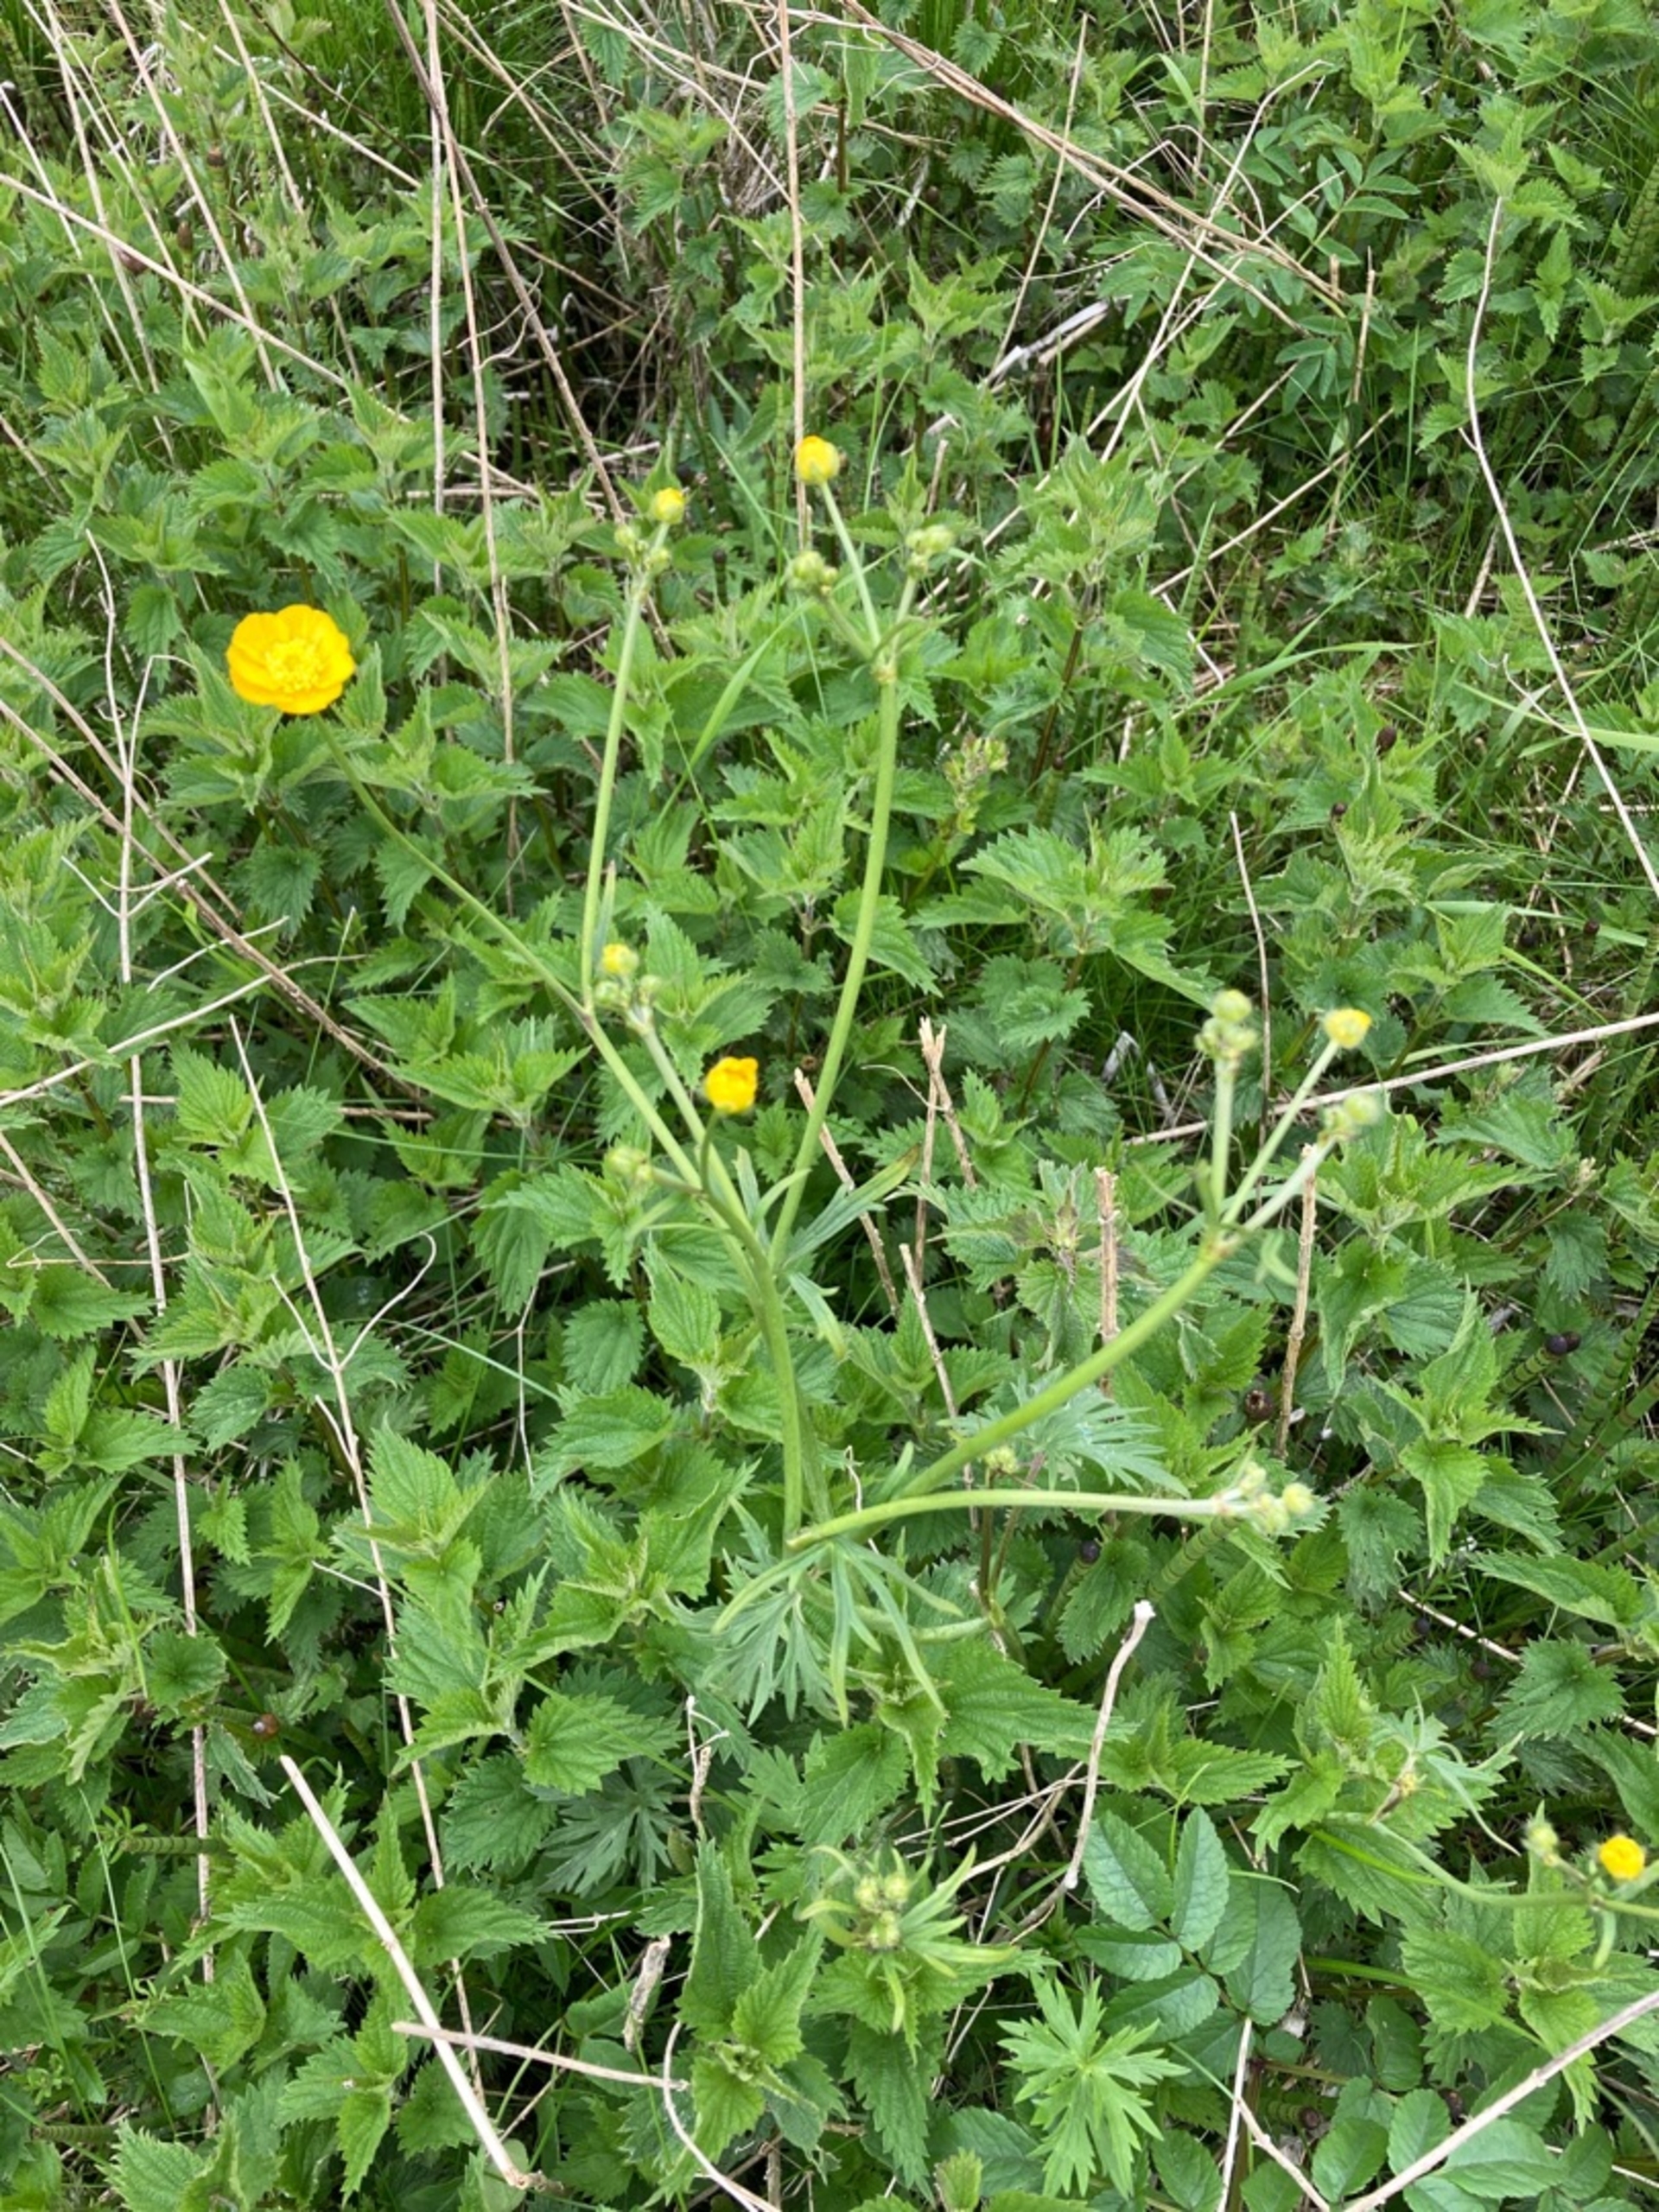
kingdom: Plantae
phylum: Tracheophyta
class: Magnoliopsida
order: Ranunculales
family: Ranunculaceae
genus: Ranunculus
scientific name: Ranunculus acris
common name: Bidende ranunkel
